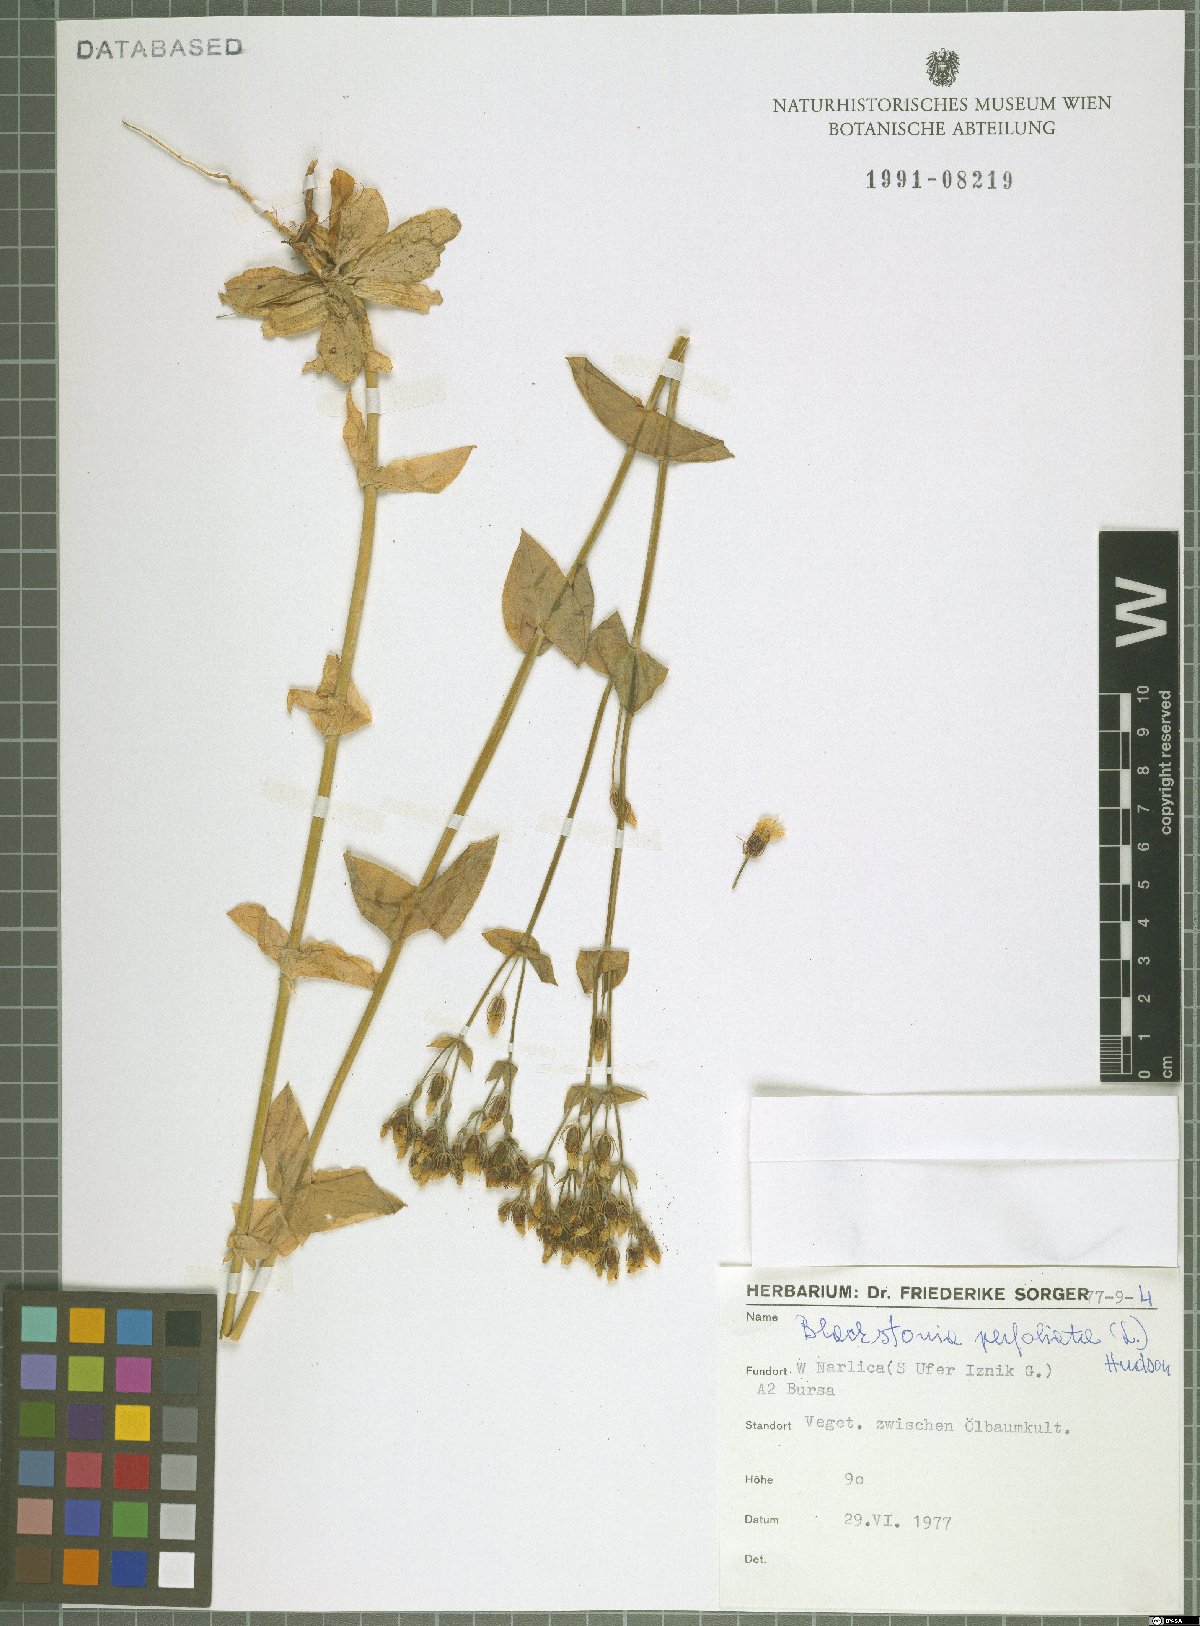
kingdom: Plantae
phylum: Tracheophyta
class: Magnoliopsida
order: Gentianales
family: Gentianaceae
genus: Blackstonia
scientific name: Blackstonia perfoliata
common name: Yellow-wort
